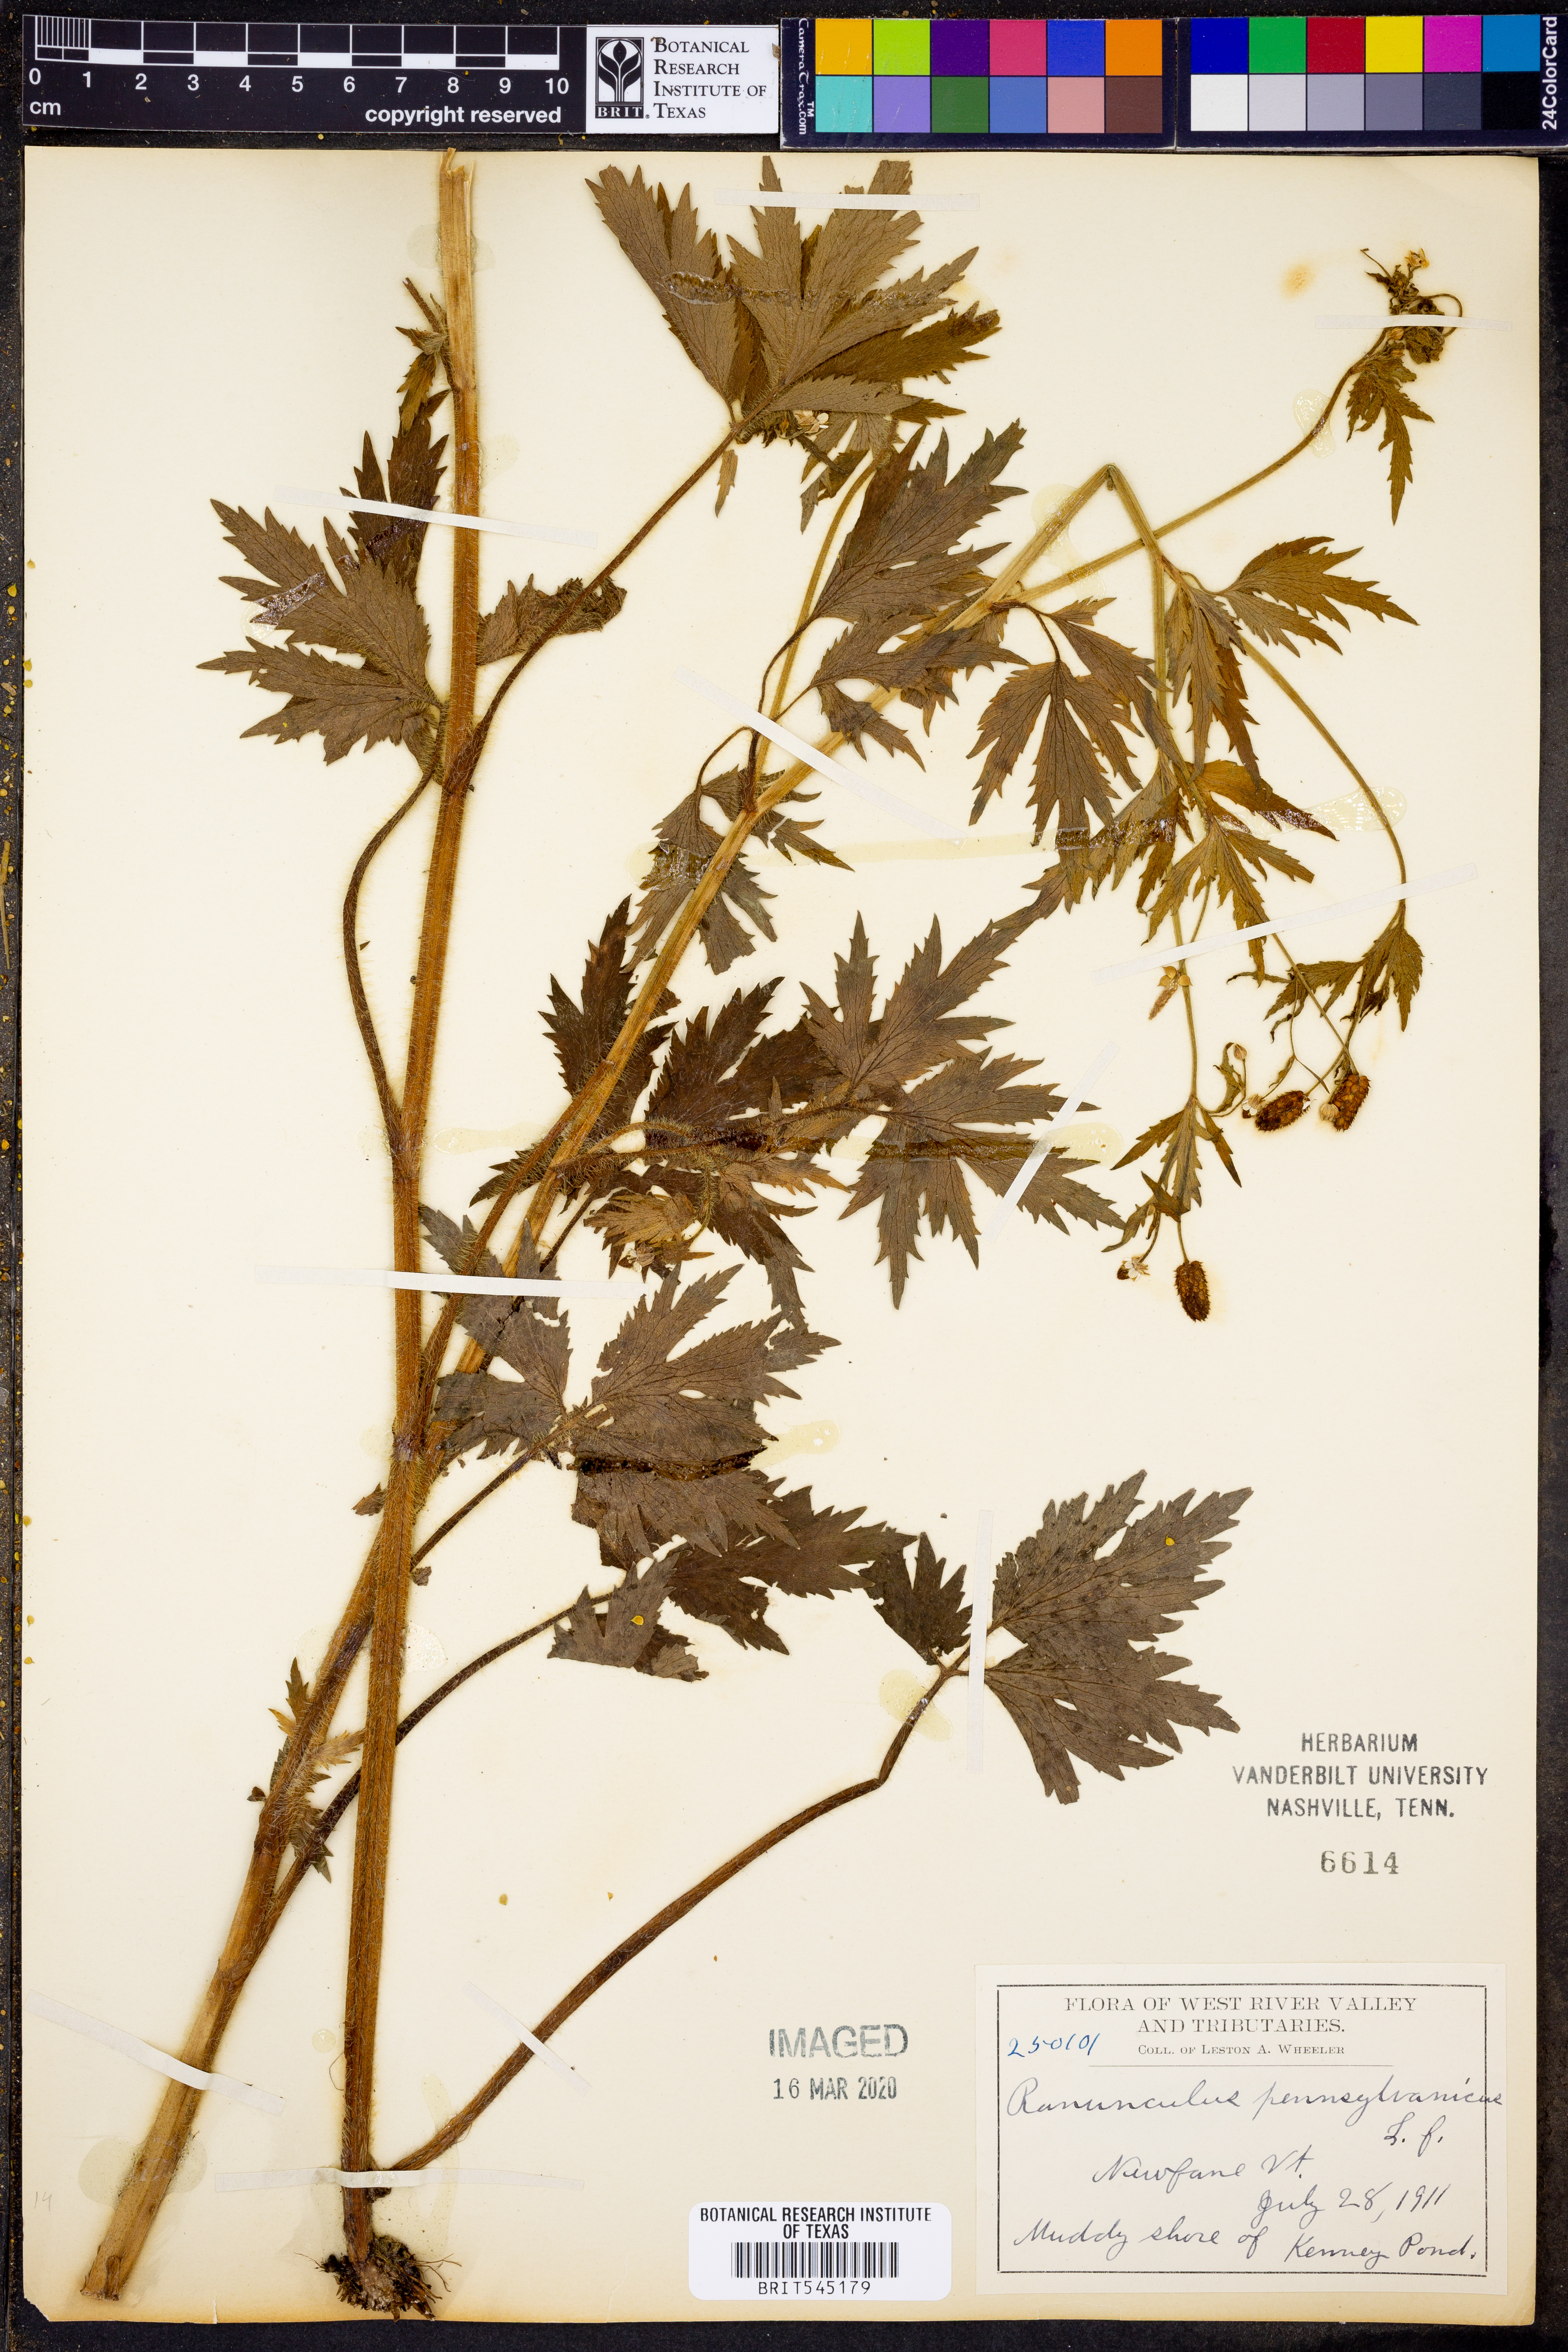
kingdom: Plantae
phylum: Tracheophyta
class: Magnoliopsida
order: Ranunculales
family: Ranunculaceae
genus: Ranunculus
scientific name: Ranunculus pensylvanicus
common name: Bristly buttercup
